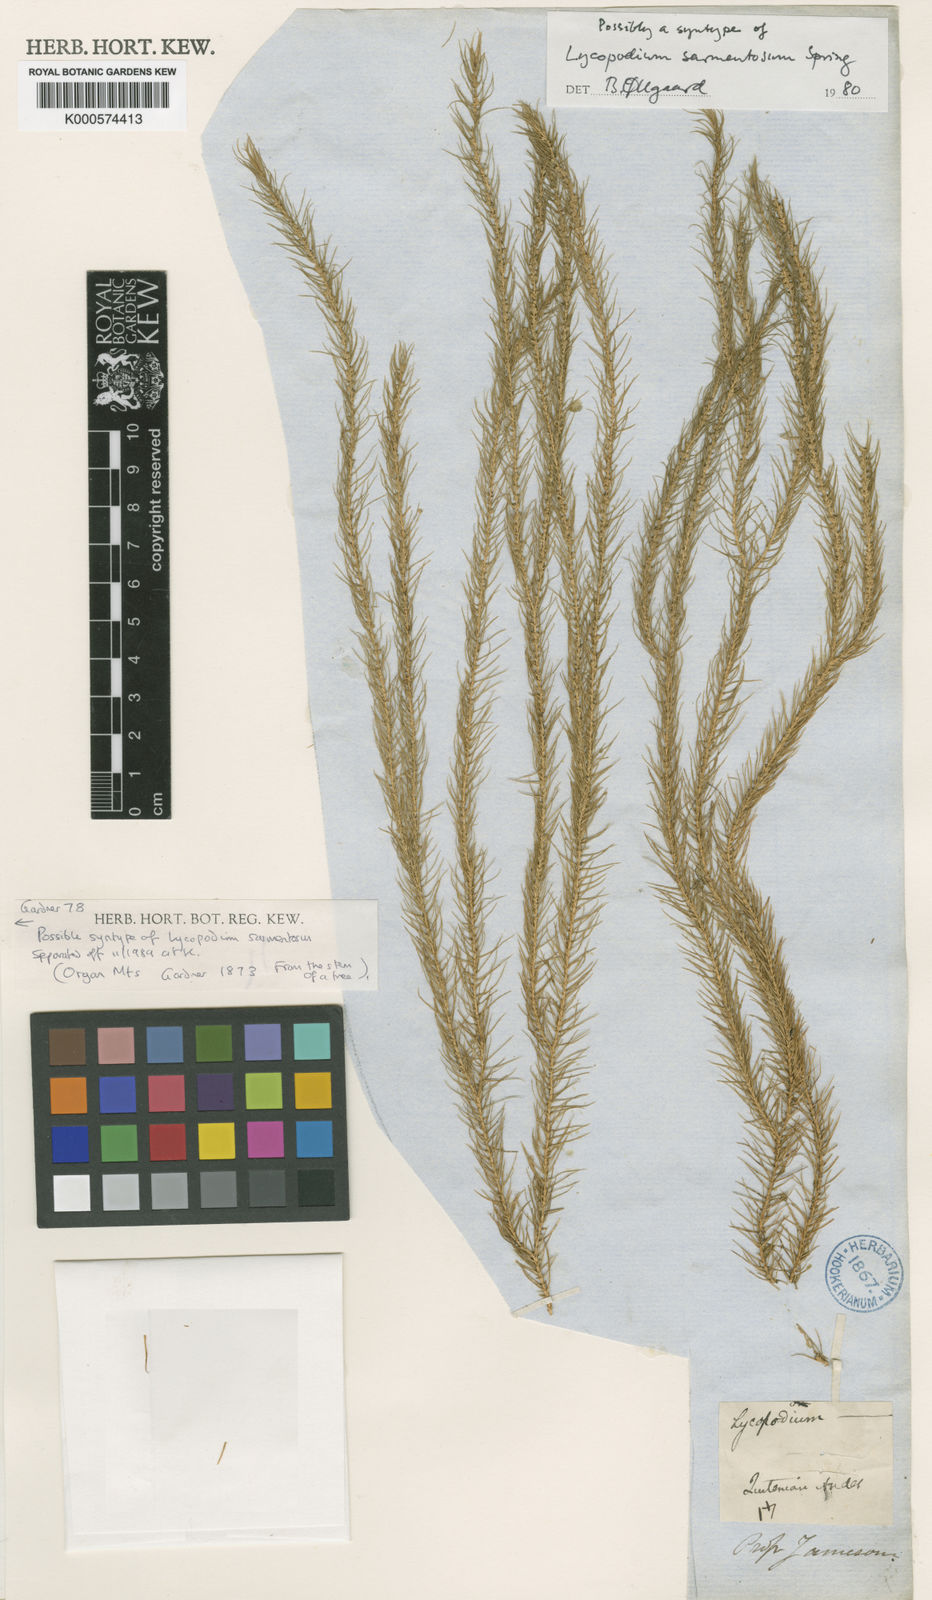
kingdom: Plantae
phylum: Tracheophyta
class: Lycopodiopsida
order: Lycopodiales
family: Lycopodiaceae
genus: Phlegmariurus
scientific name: Phlegmariurus sarmentosus
